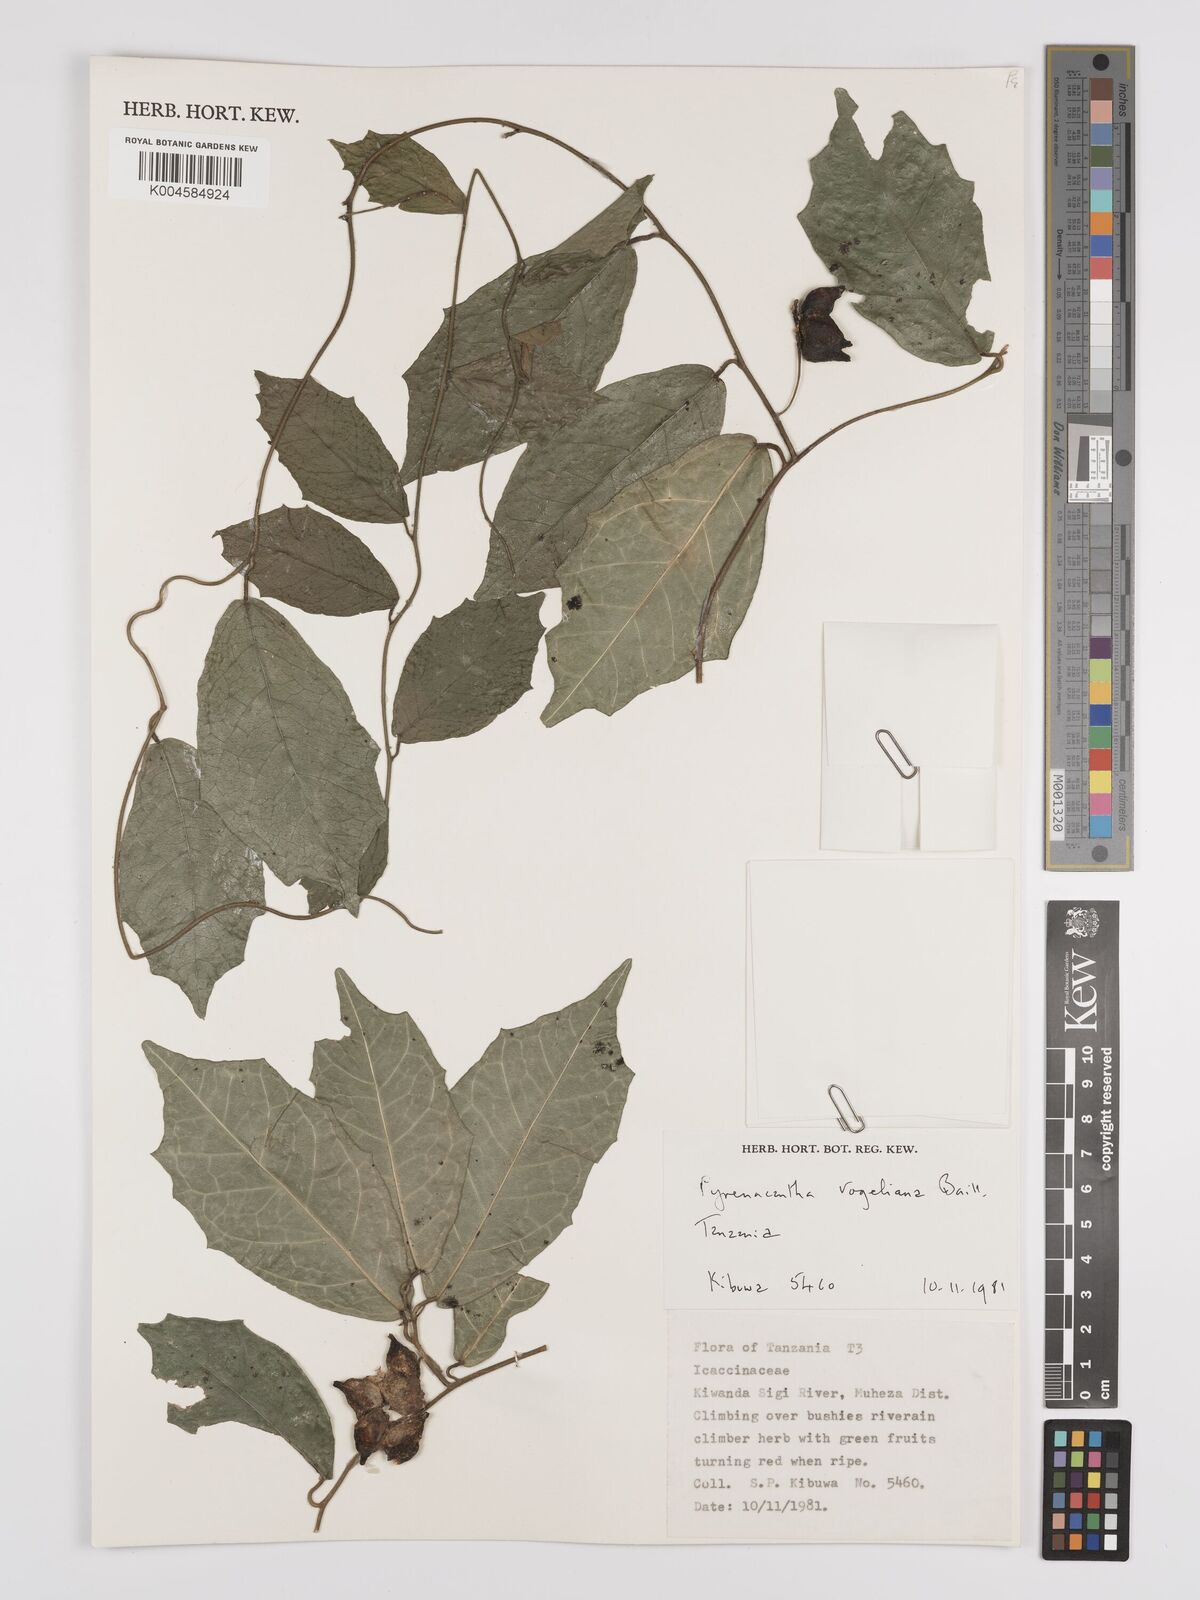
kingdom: Plantae
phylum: Tracheophyta
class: Magnoliopsida
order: Icacinales
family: Icacinaceae
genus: Pyrenacantha
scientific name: Pyrenacantha vogeliana
